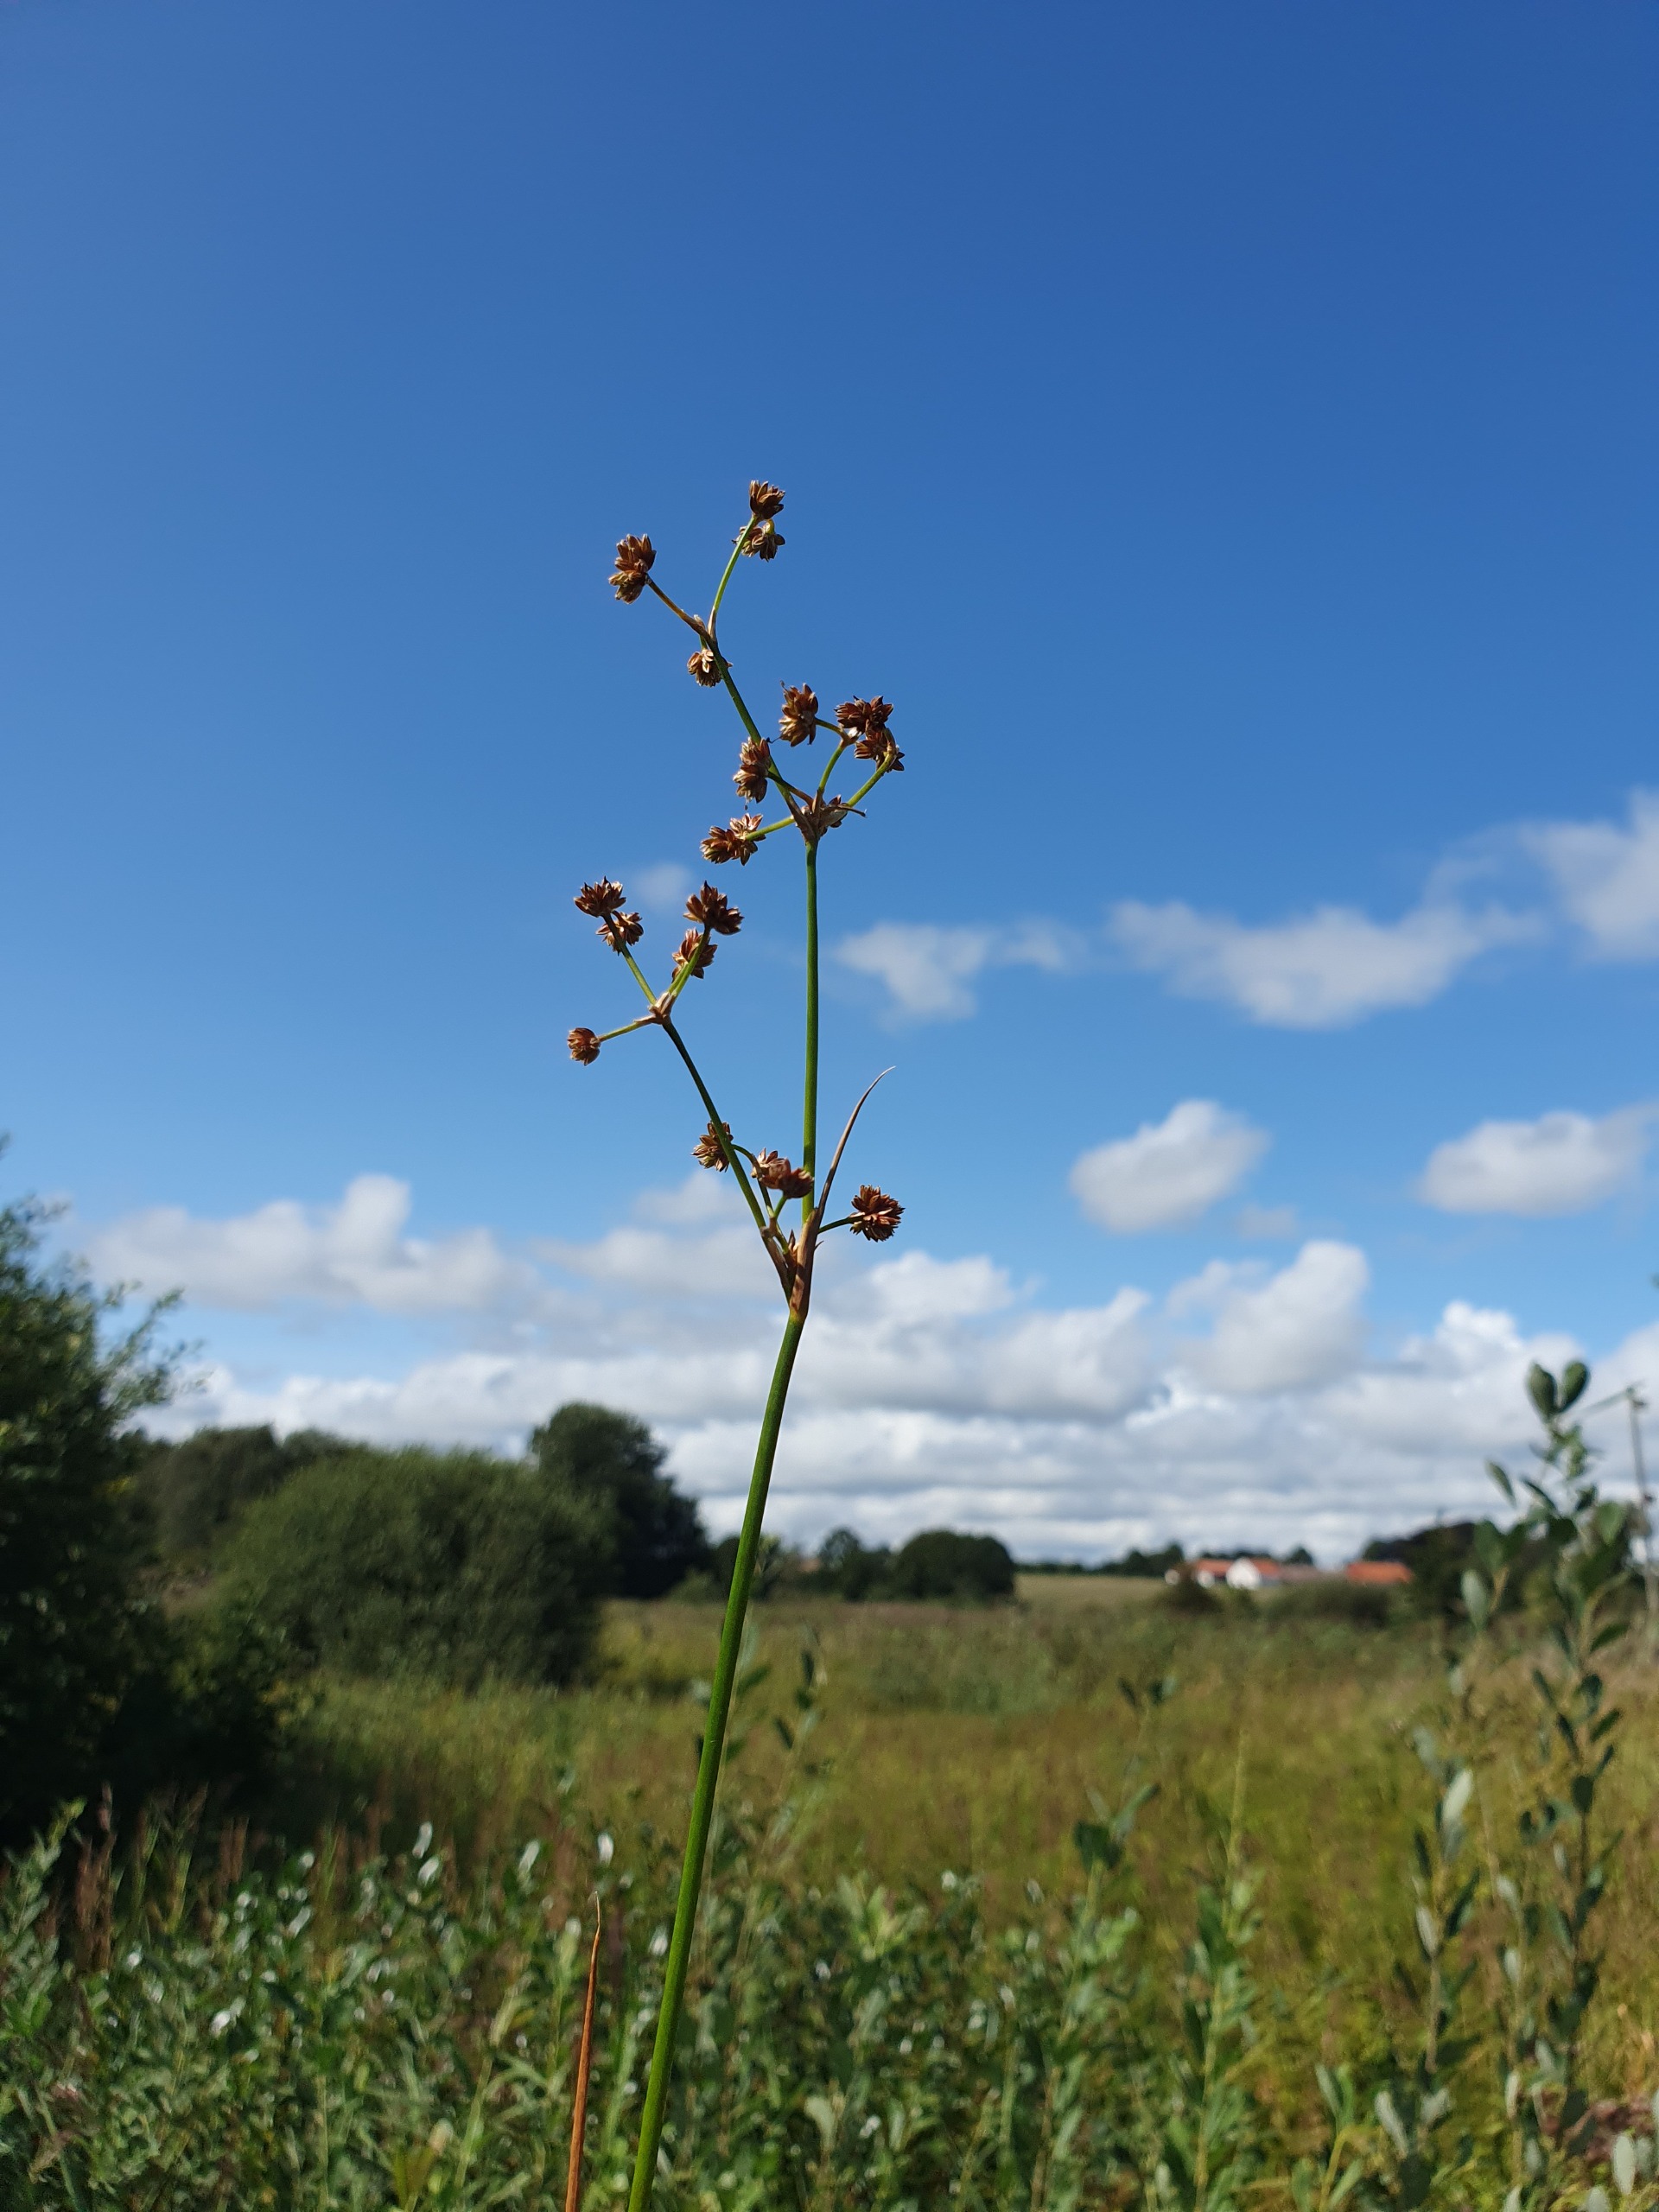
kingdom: Plantae
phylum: Tracheophyta
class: Liliopsida
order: Poales
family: Juncaceae
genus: Juncus
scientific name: Juncus subnodulosus
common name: Butblomstret siv
